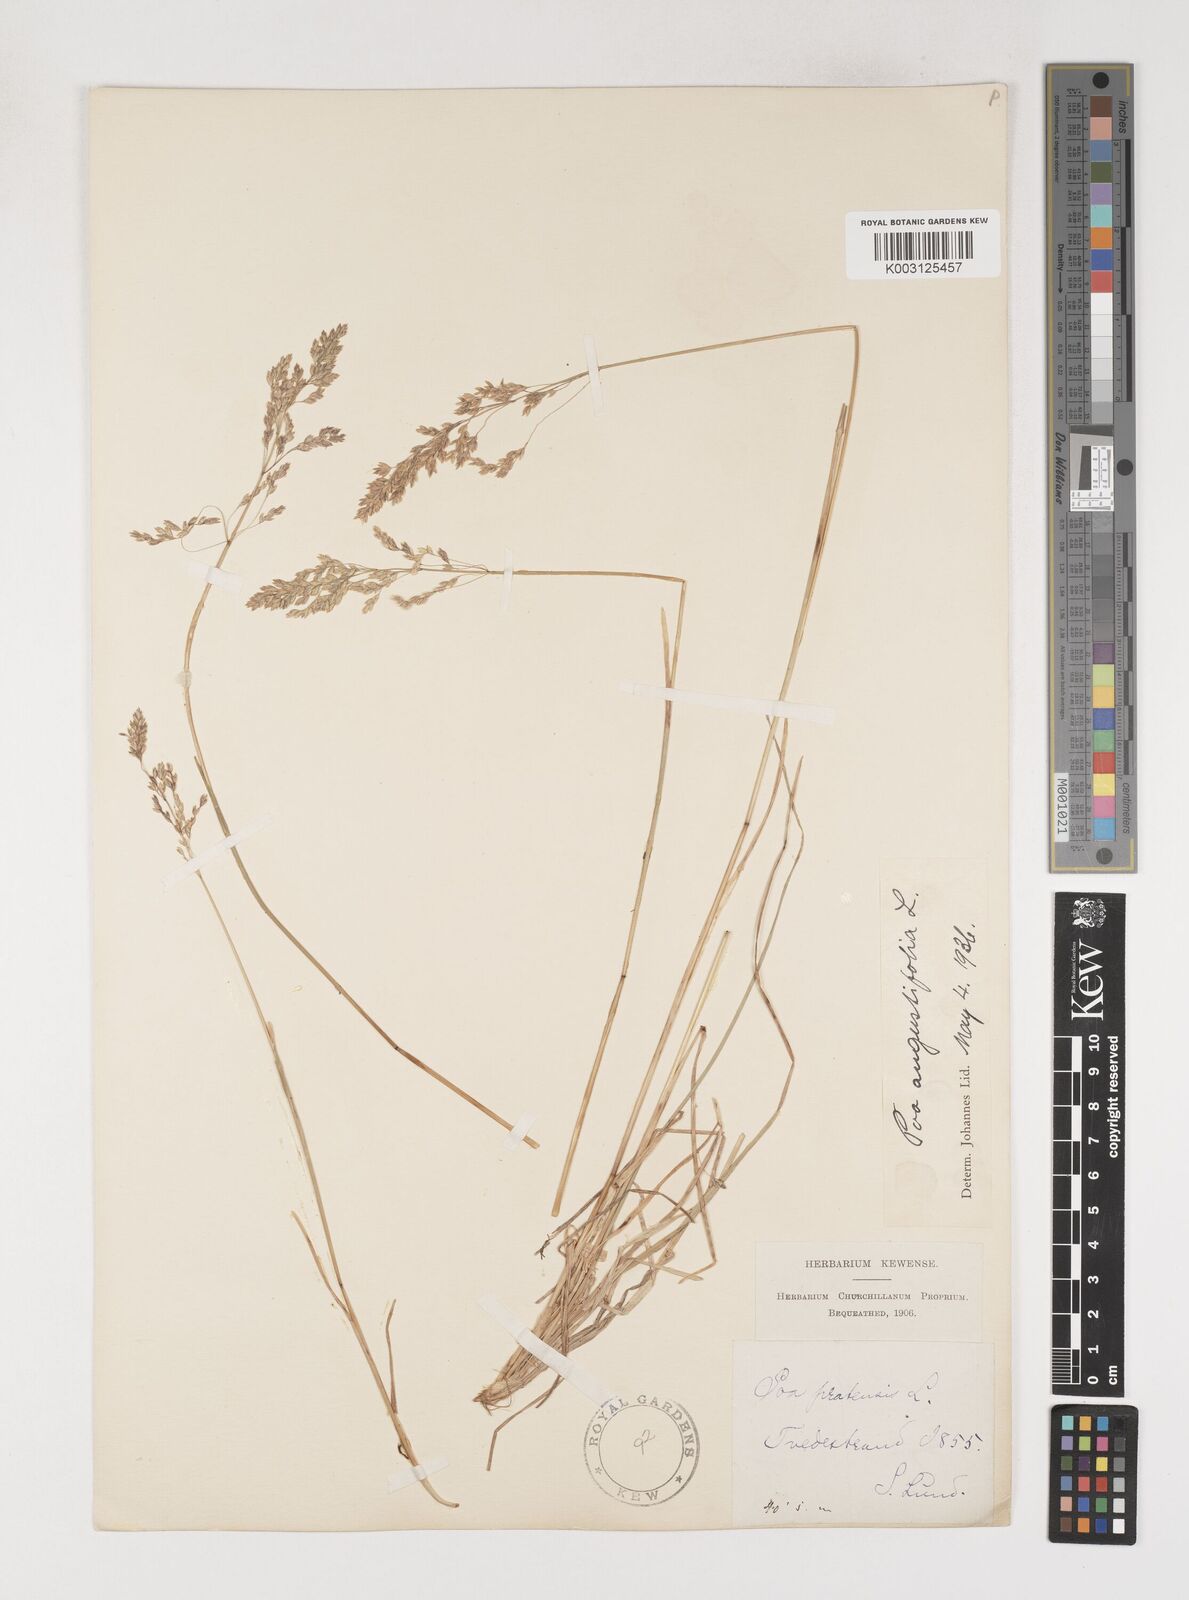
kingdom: Plantae
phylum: Tracheophyta
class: Liliopsida
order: Poales
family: Poaceae
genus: Poa
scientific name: Poa angustifolia
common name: Narrow-leaved meadow-grass
